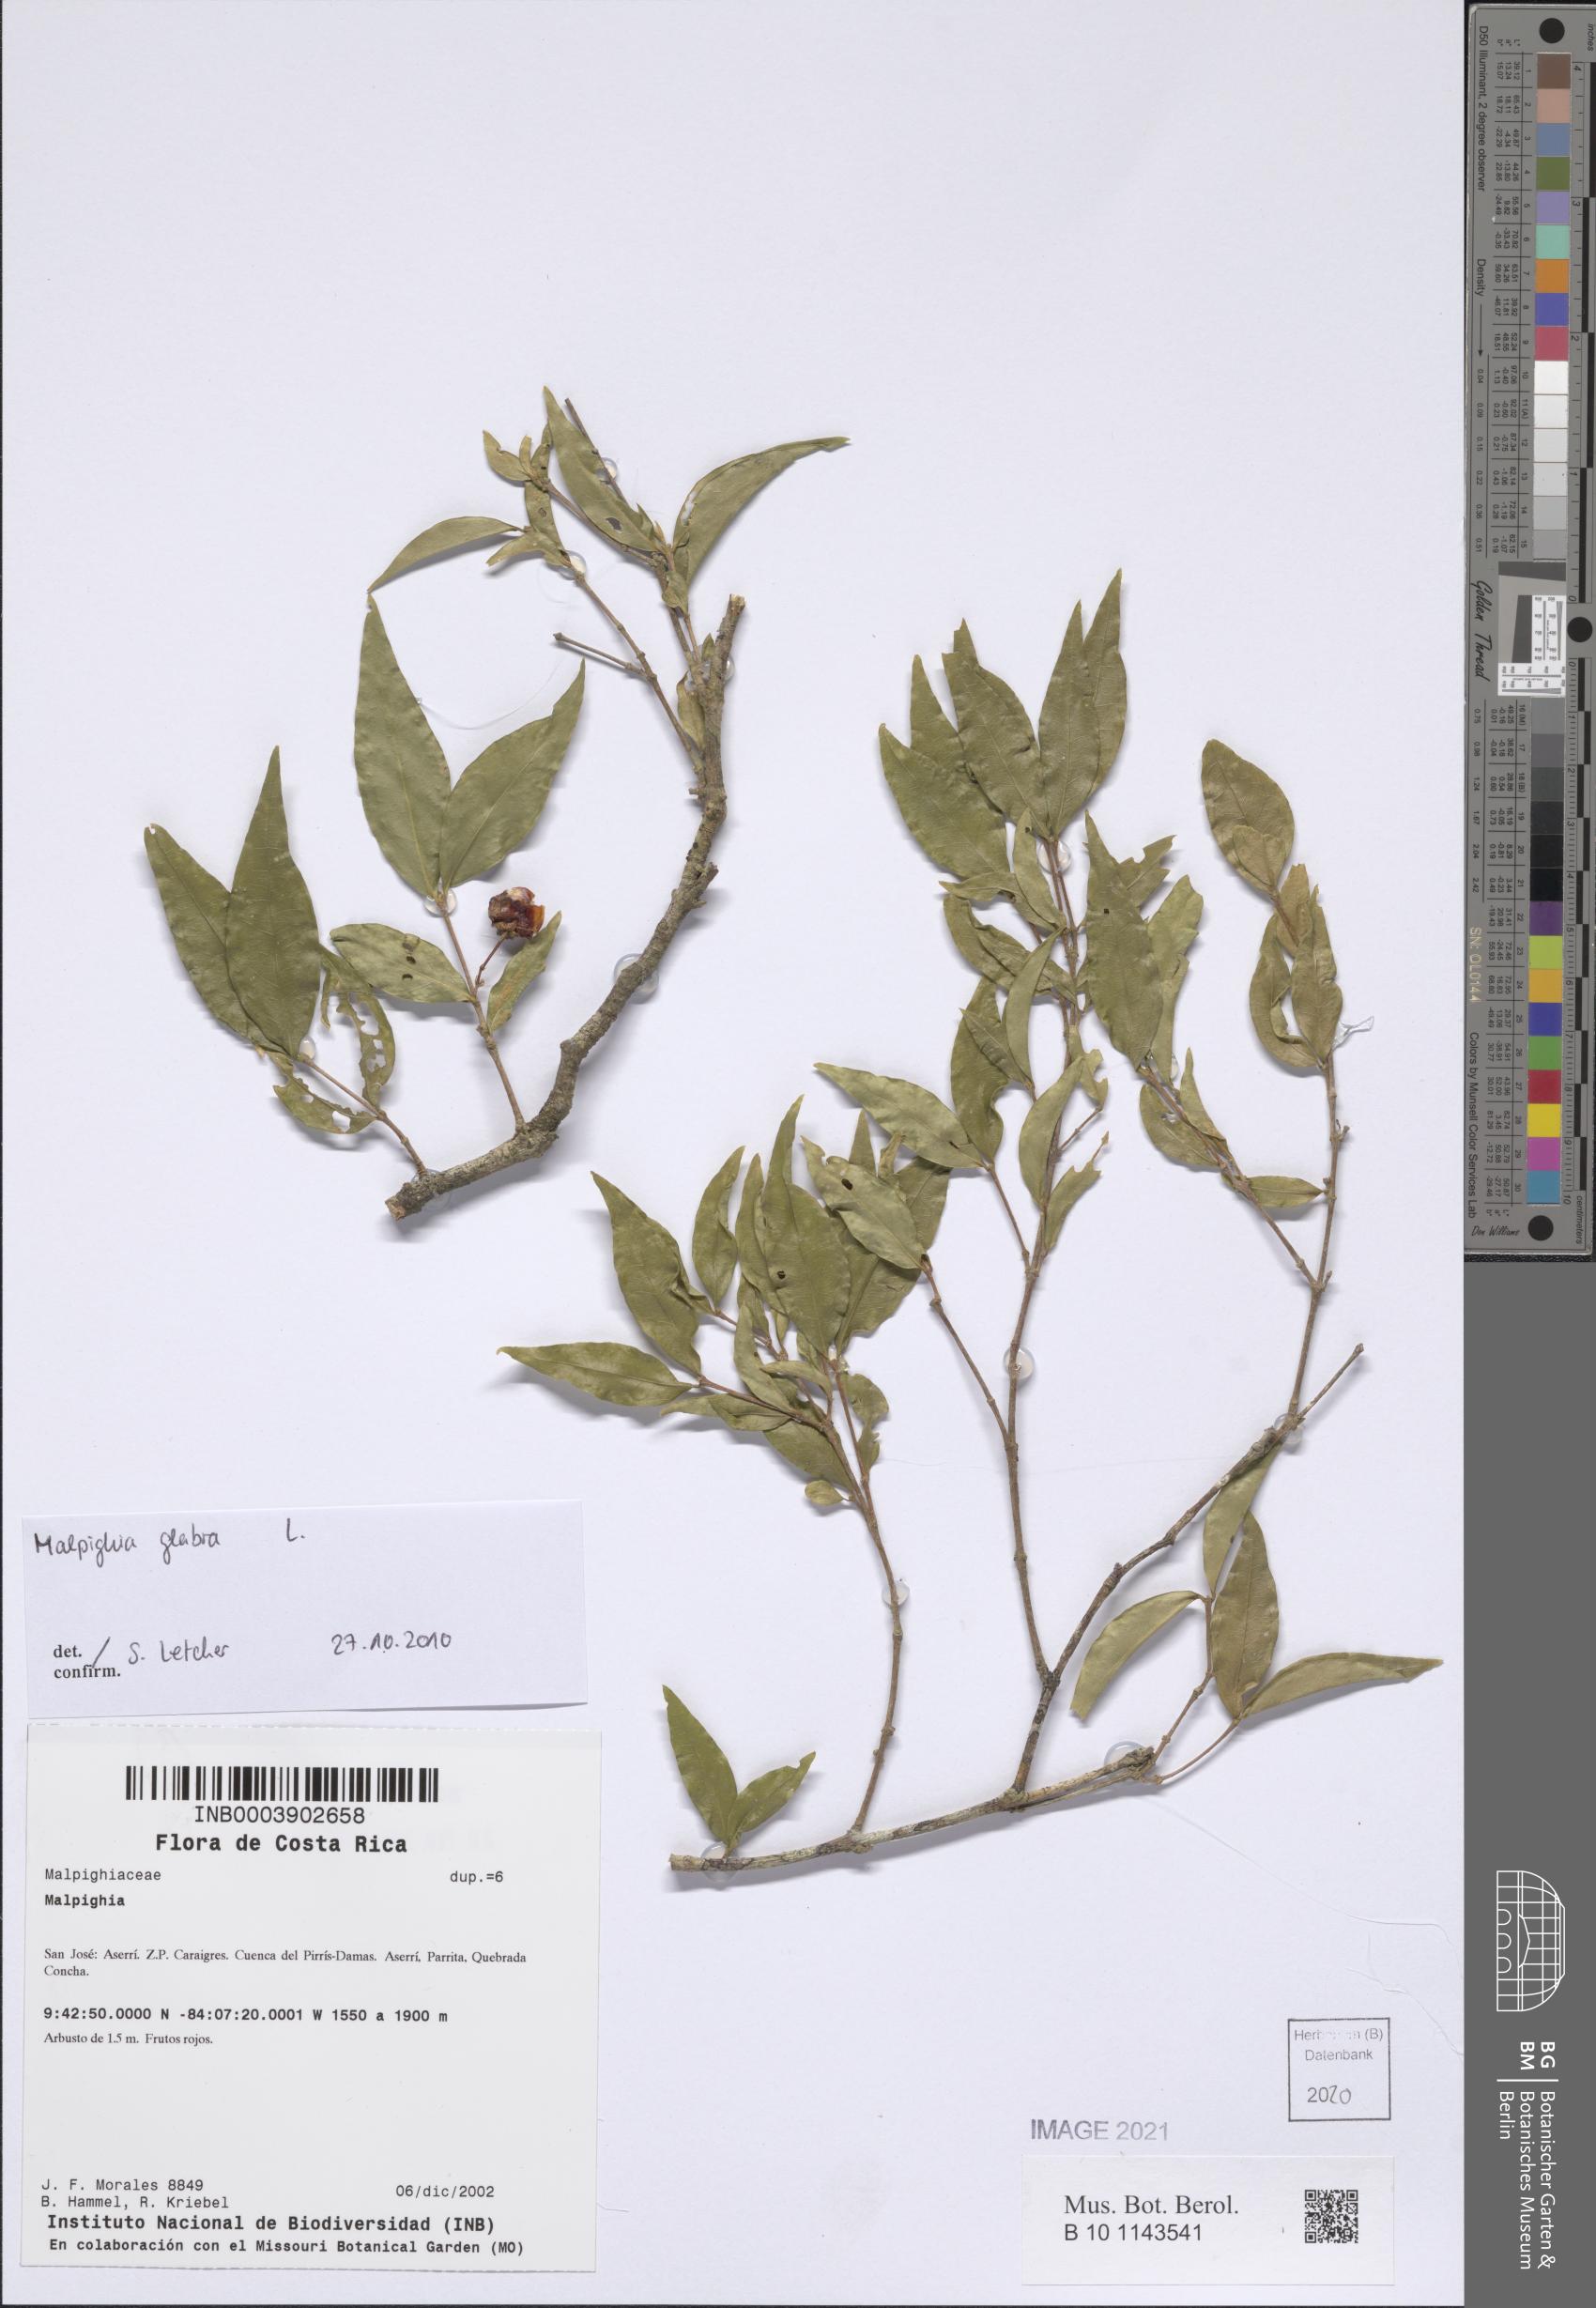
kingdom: Plantae
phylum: Tracheophyta
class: Magnoliopsida
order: Malpighiales
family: Malpighiaceae
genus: Malpighia
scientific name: Malpighia glabra
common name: Barbados cherry
